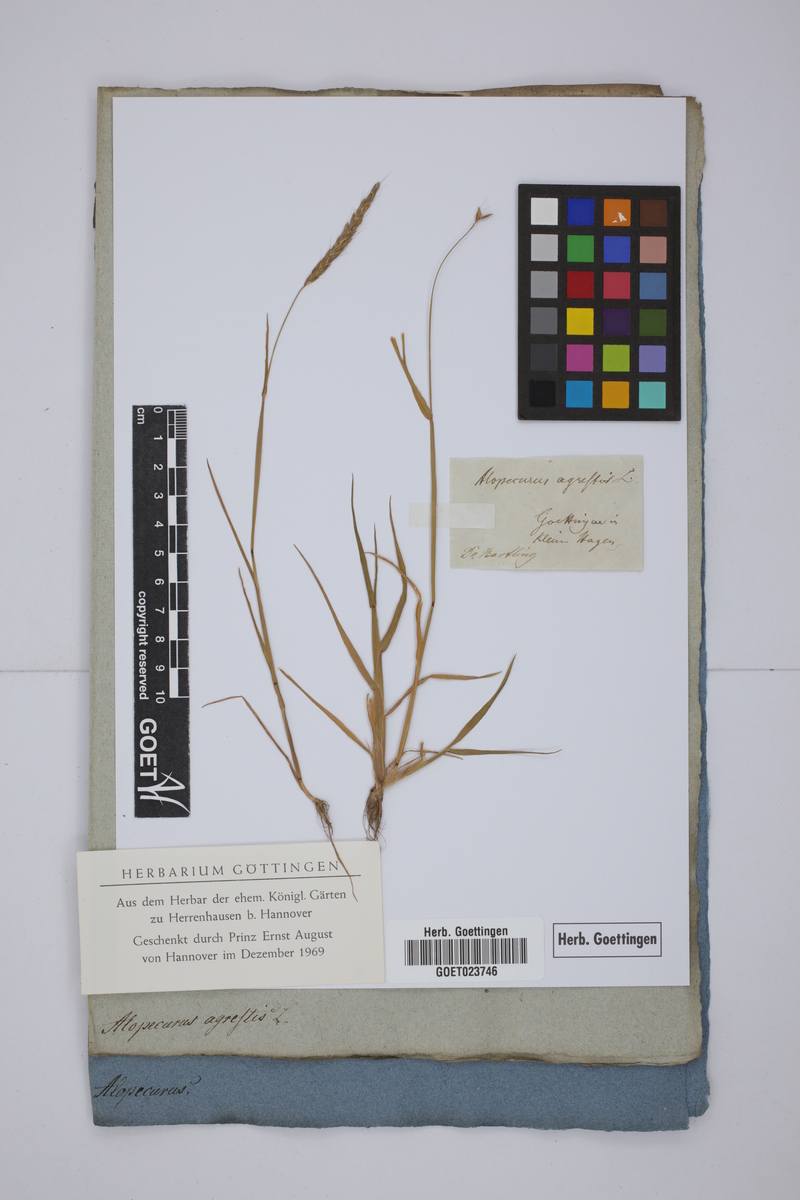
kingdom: Plantae
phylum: Tracheophyta
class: Liliopsida
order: Poales
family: Poaceae
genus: Alopecurus
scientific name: Alopecurus myosuroides
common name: Black-grass
